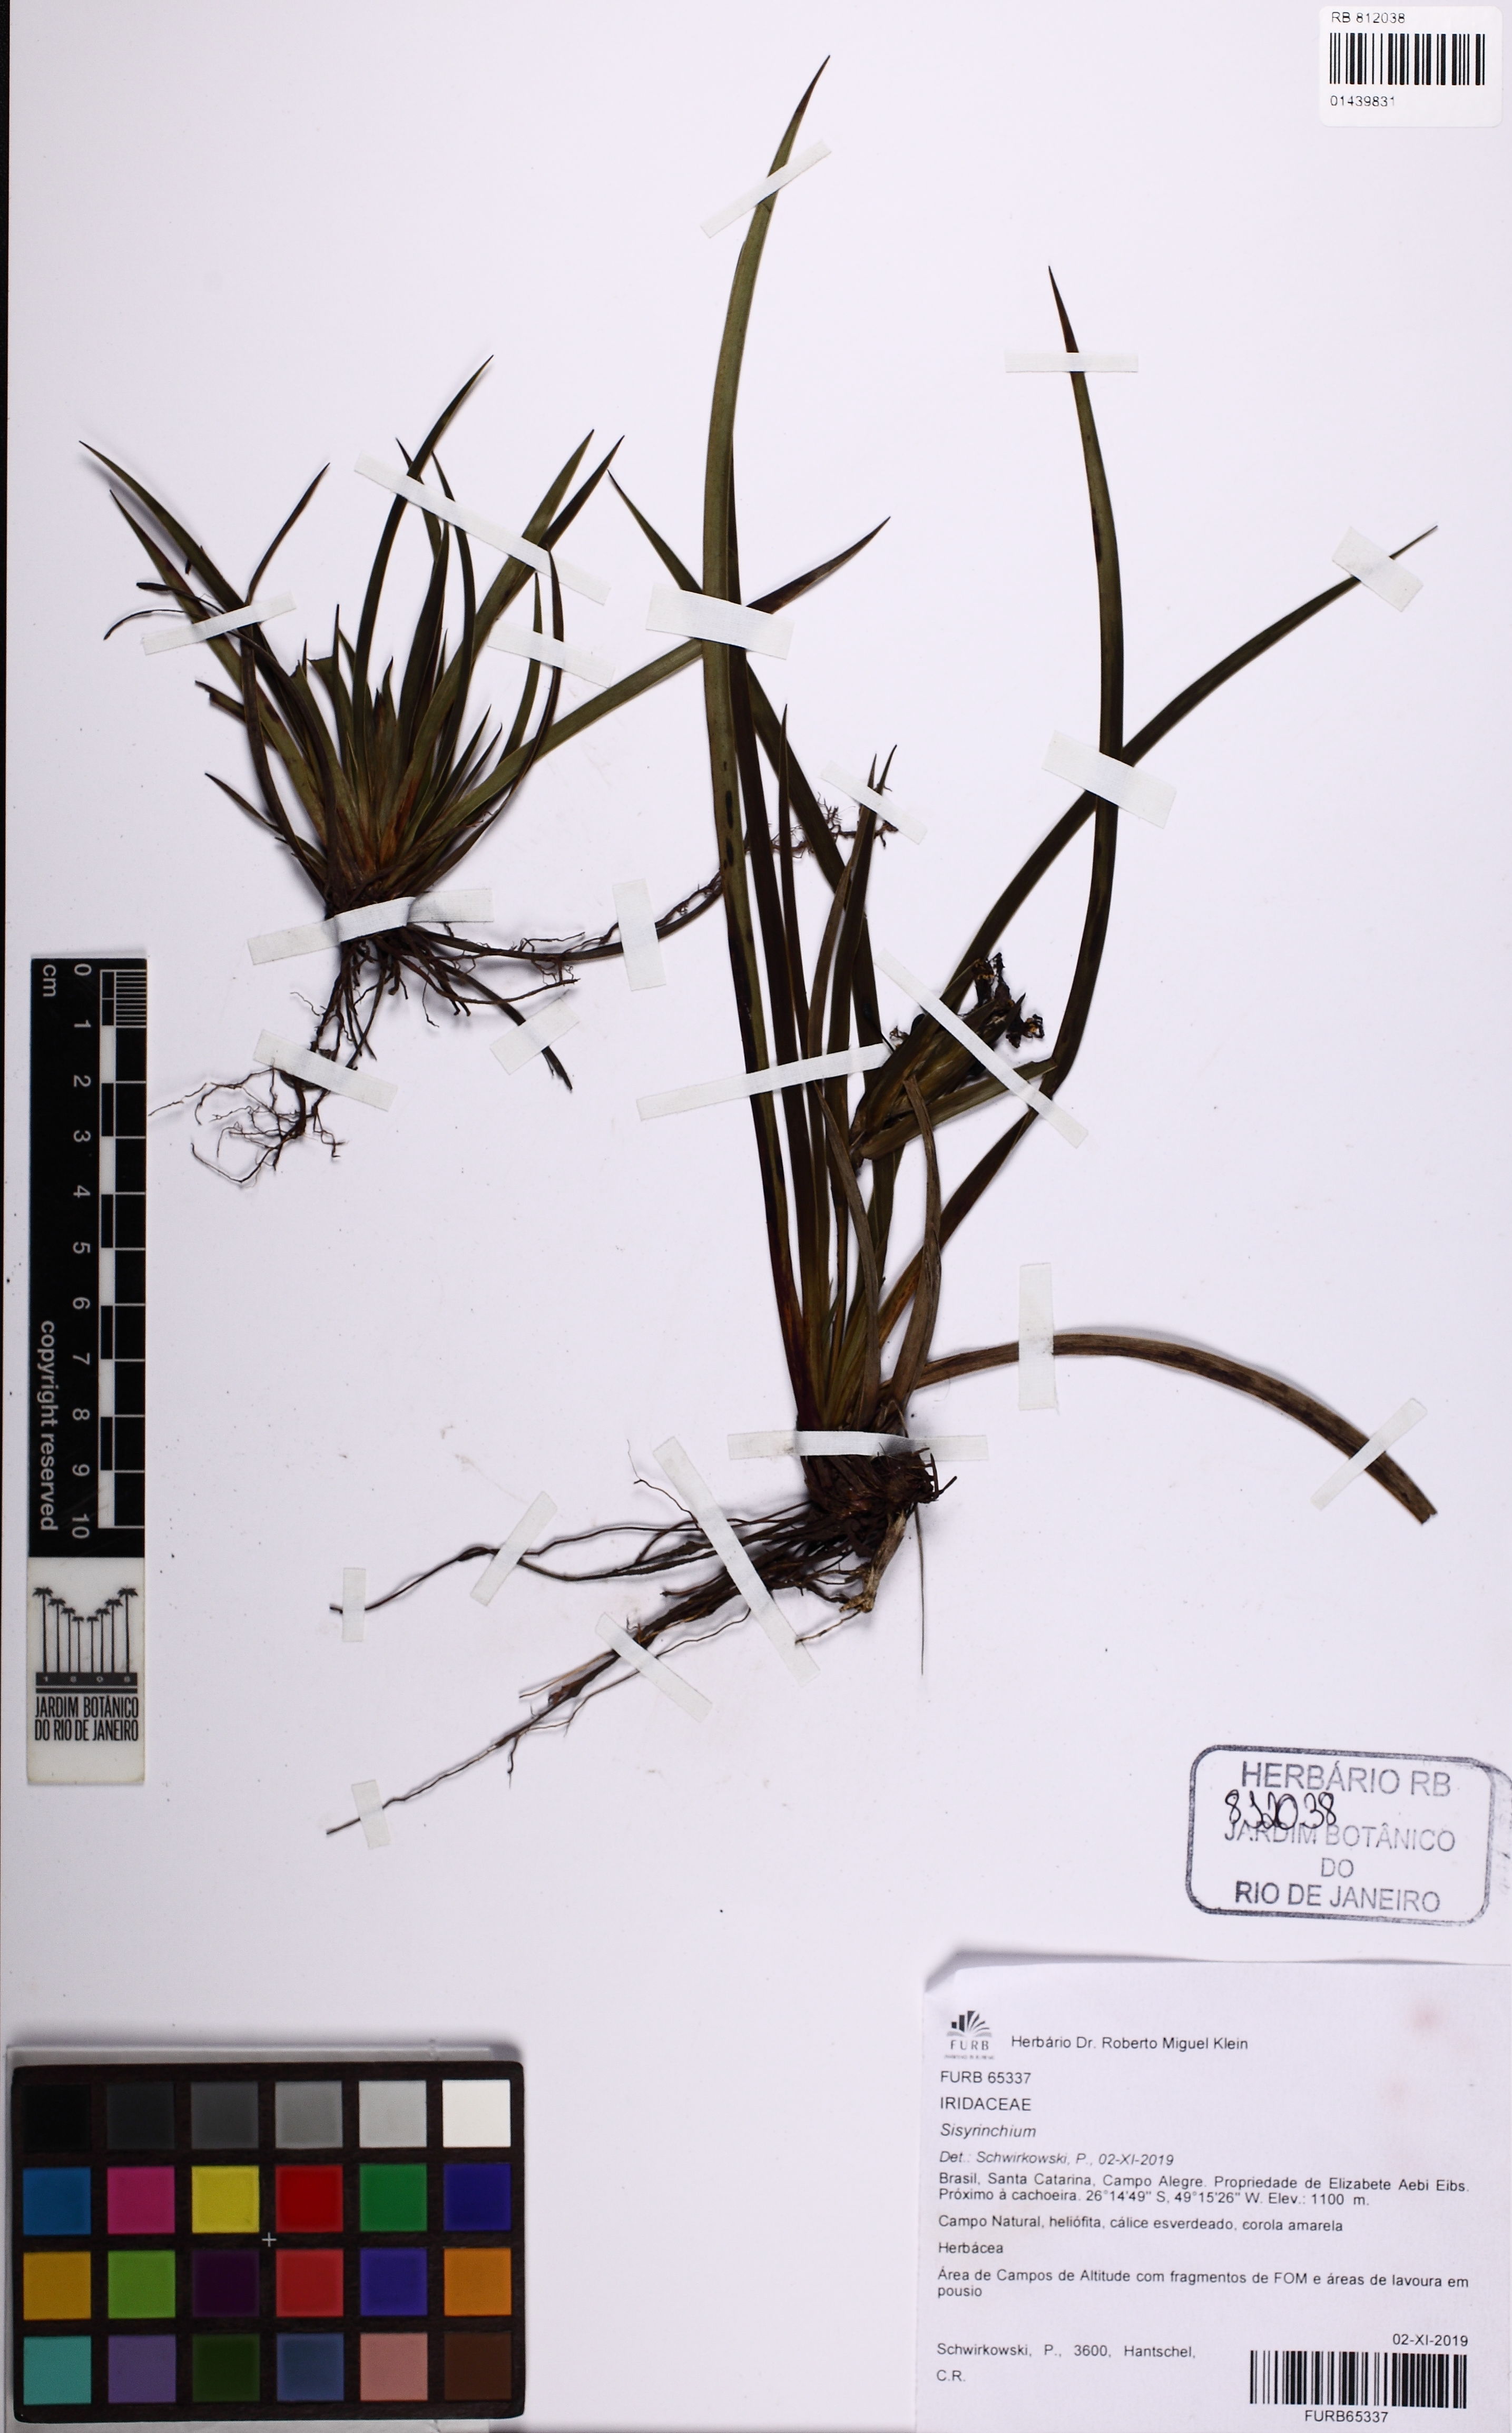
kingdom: Plantae
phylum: Tracheophyta
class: Liliopsida
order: Asparagales
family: Iridaceae
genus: Sisyrinchium
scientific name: Sisyrinchium
